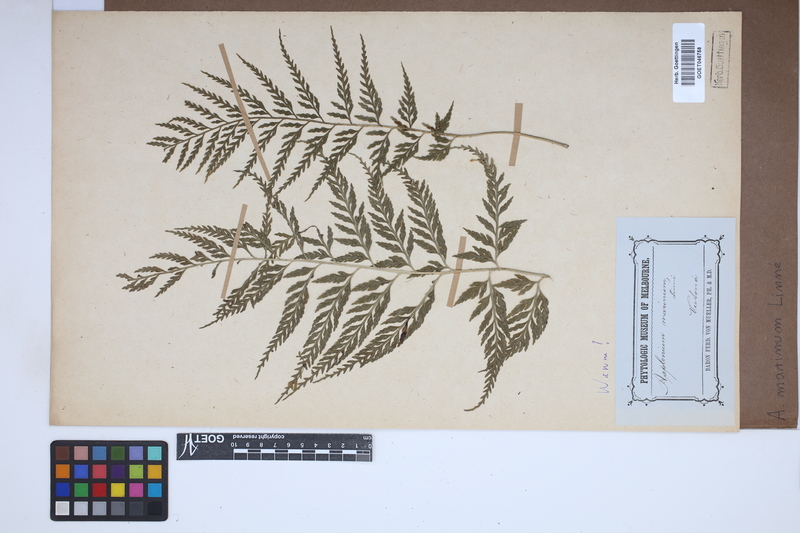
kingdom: Plantae
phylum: Tracheophyta
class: Polypodiopsida
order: Polypodiales
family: Aspleniaceae
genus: Asplenium
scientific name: Asplenium marinum
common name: Sea spleenwort
